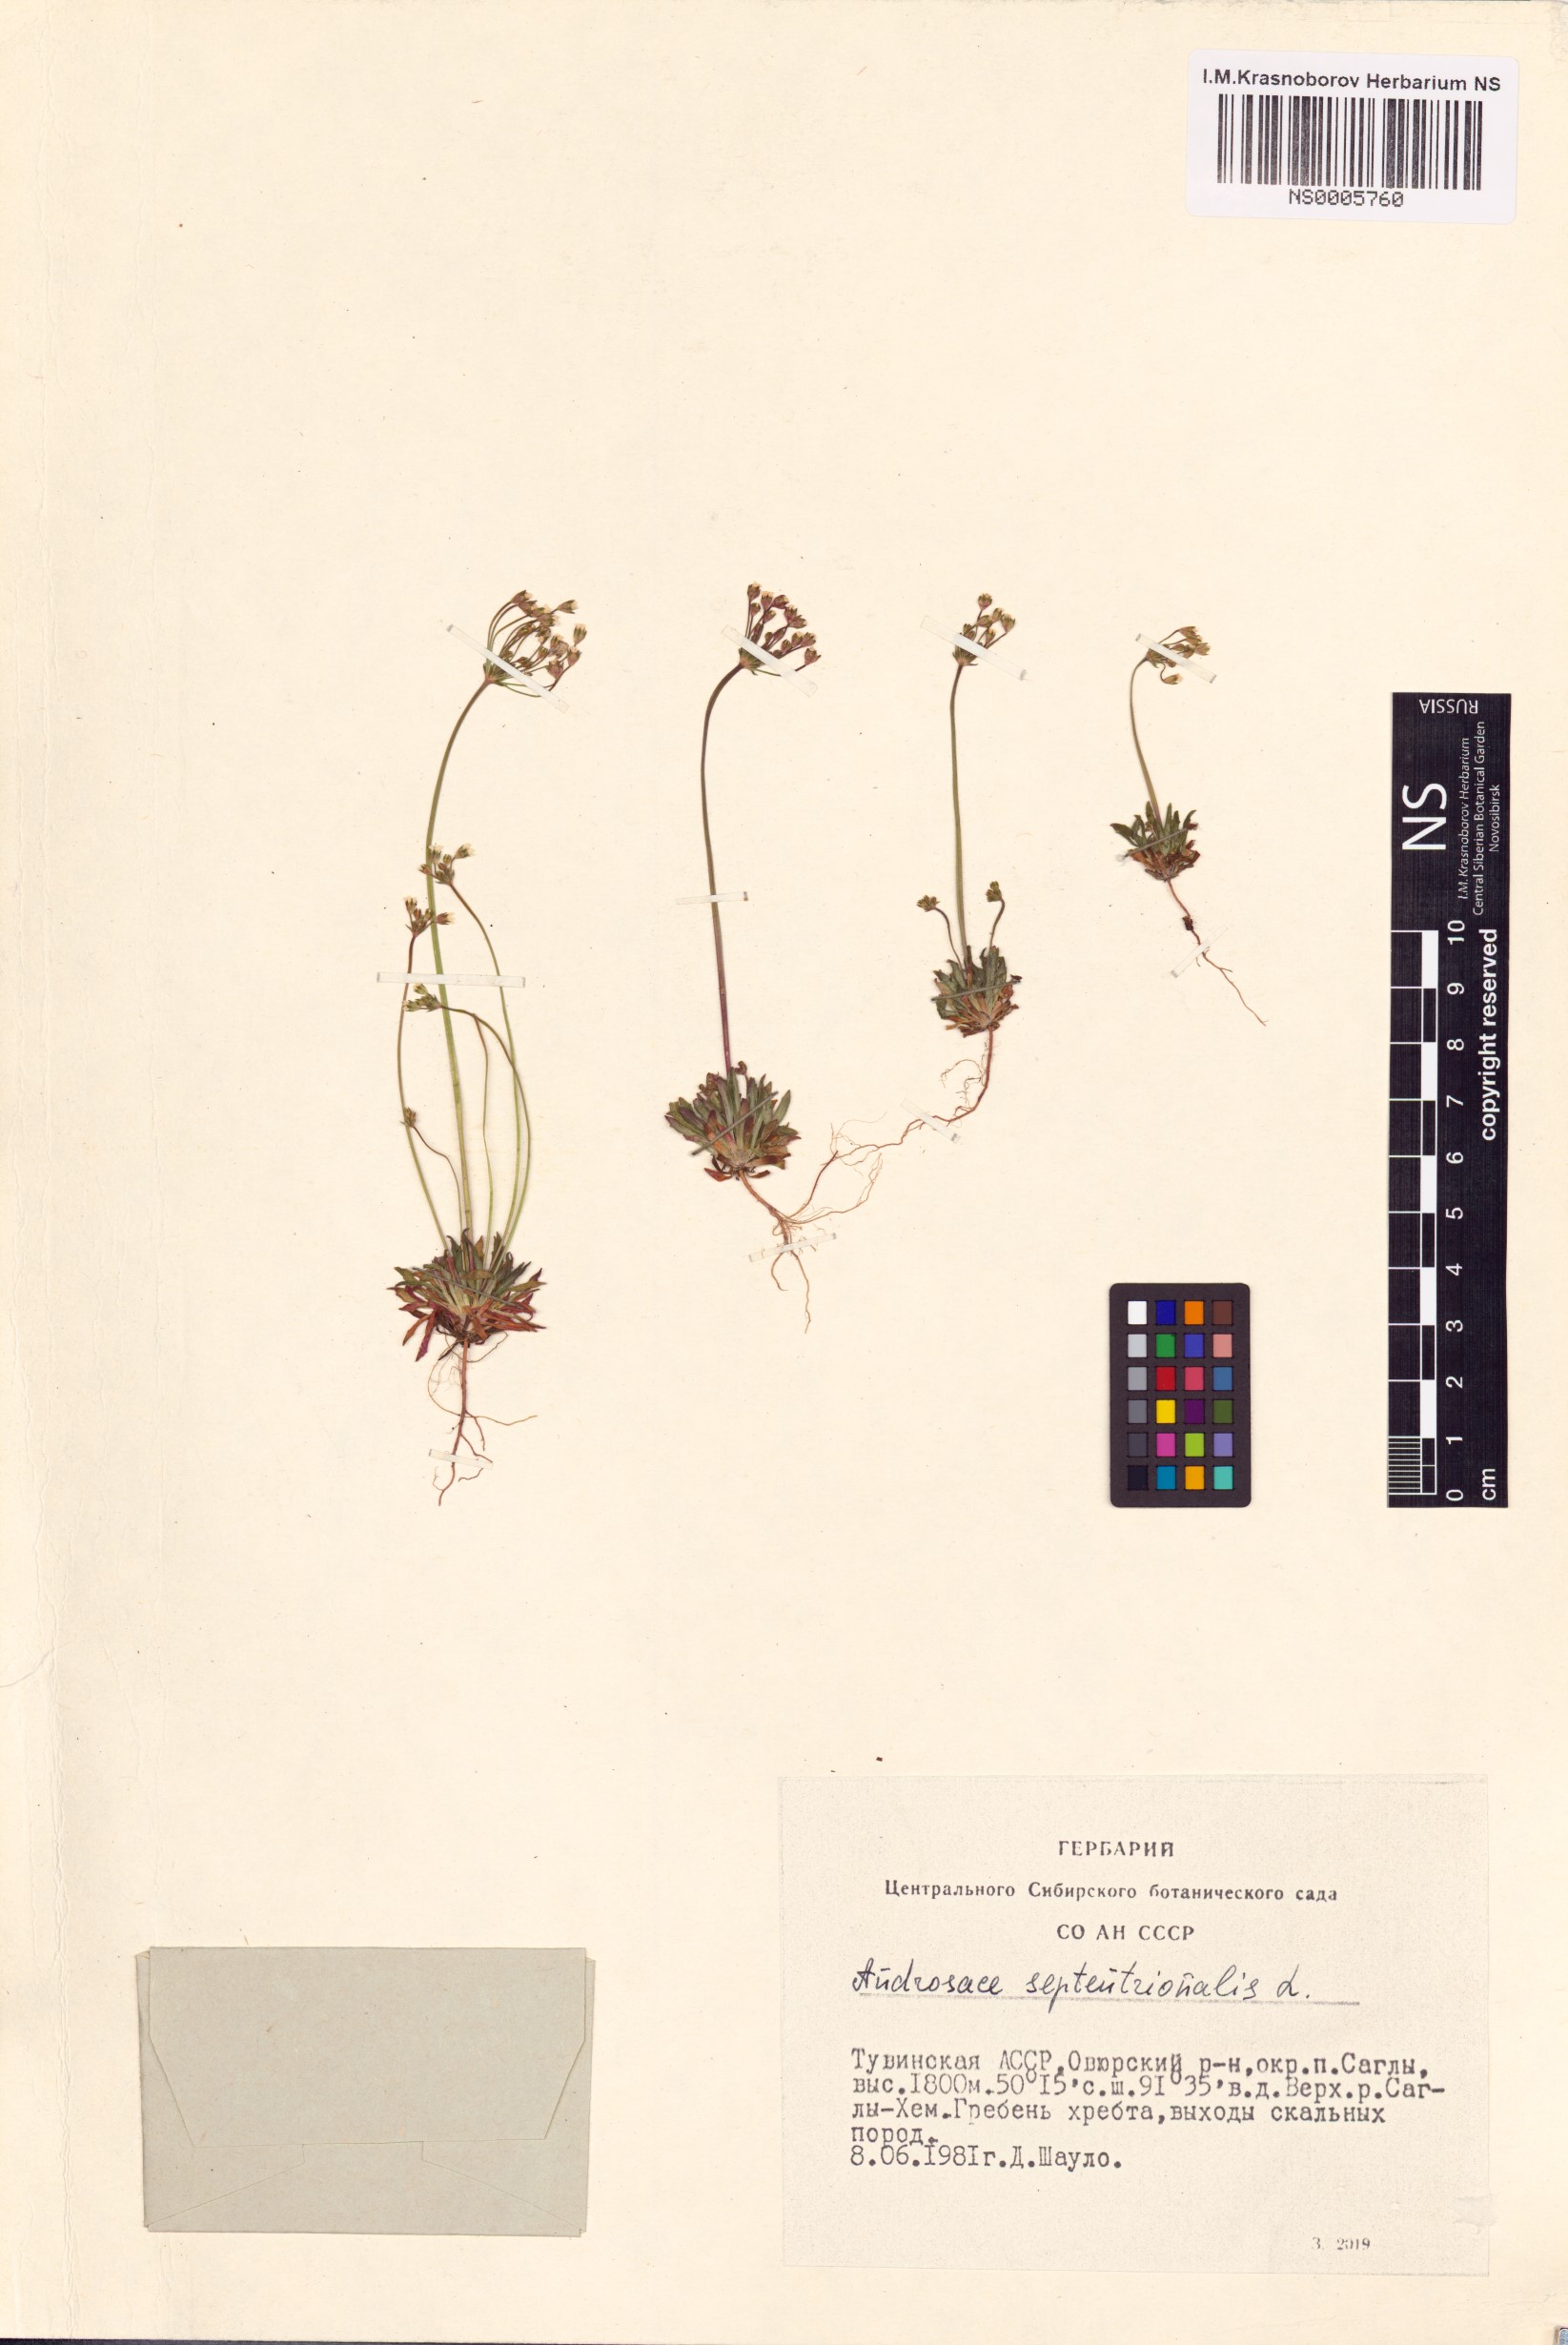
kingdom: Plantae
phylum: Tracheophyta
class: Magnoliopsida
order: Ericales
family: Primulaceae
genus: Androsace
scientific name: Androsace septentrionalis
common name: Hairy northern fairy-candelabra
